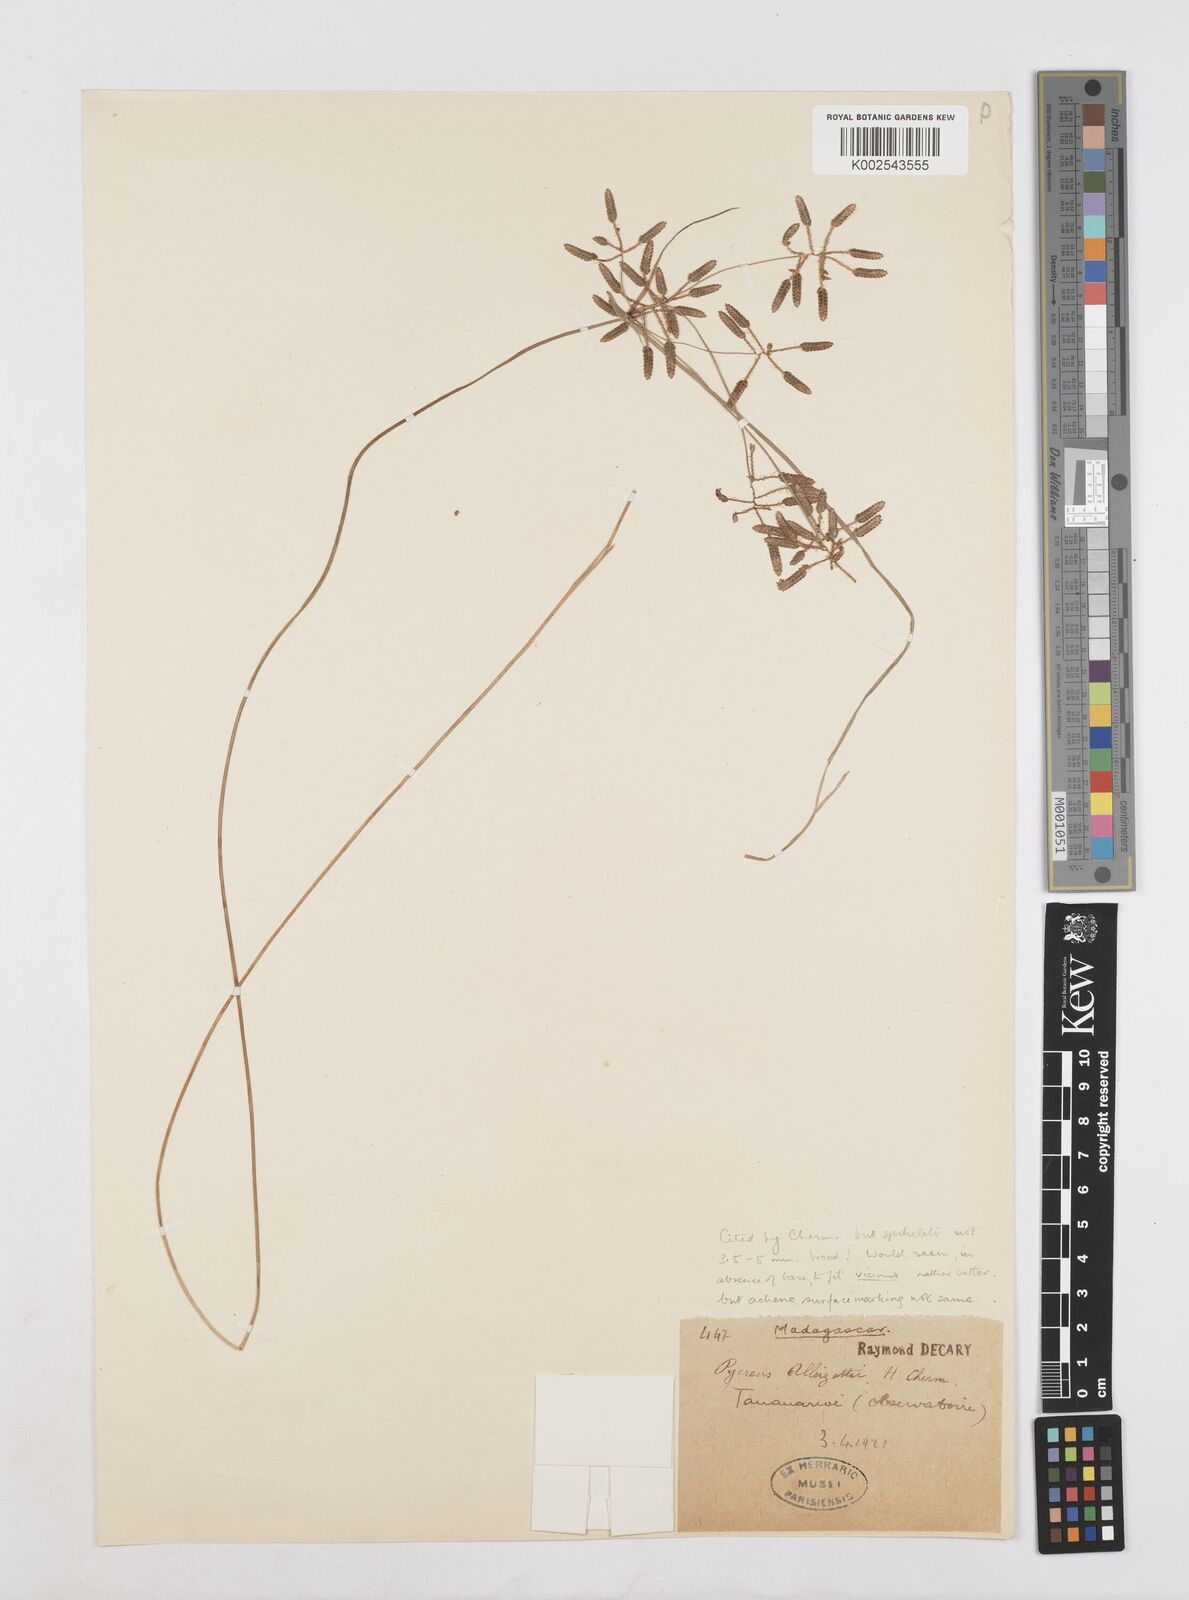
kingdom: Plantae
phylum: Tracheophyta
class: Liliopsida
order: Poales
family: Cyperaceae
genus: Cyperus
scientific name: Cyperus
